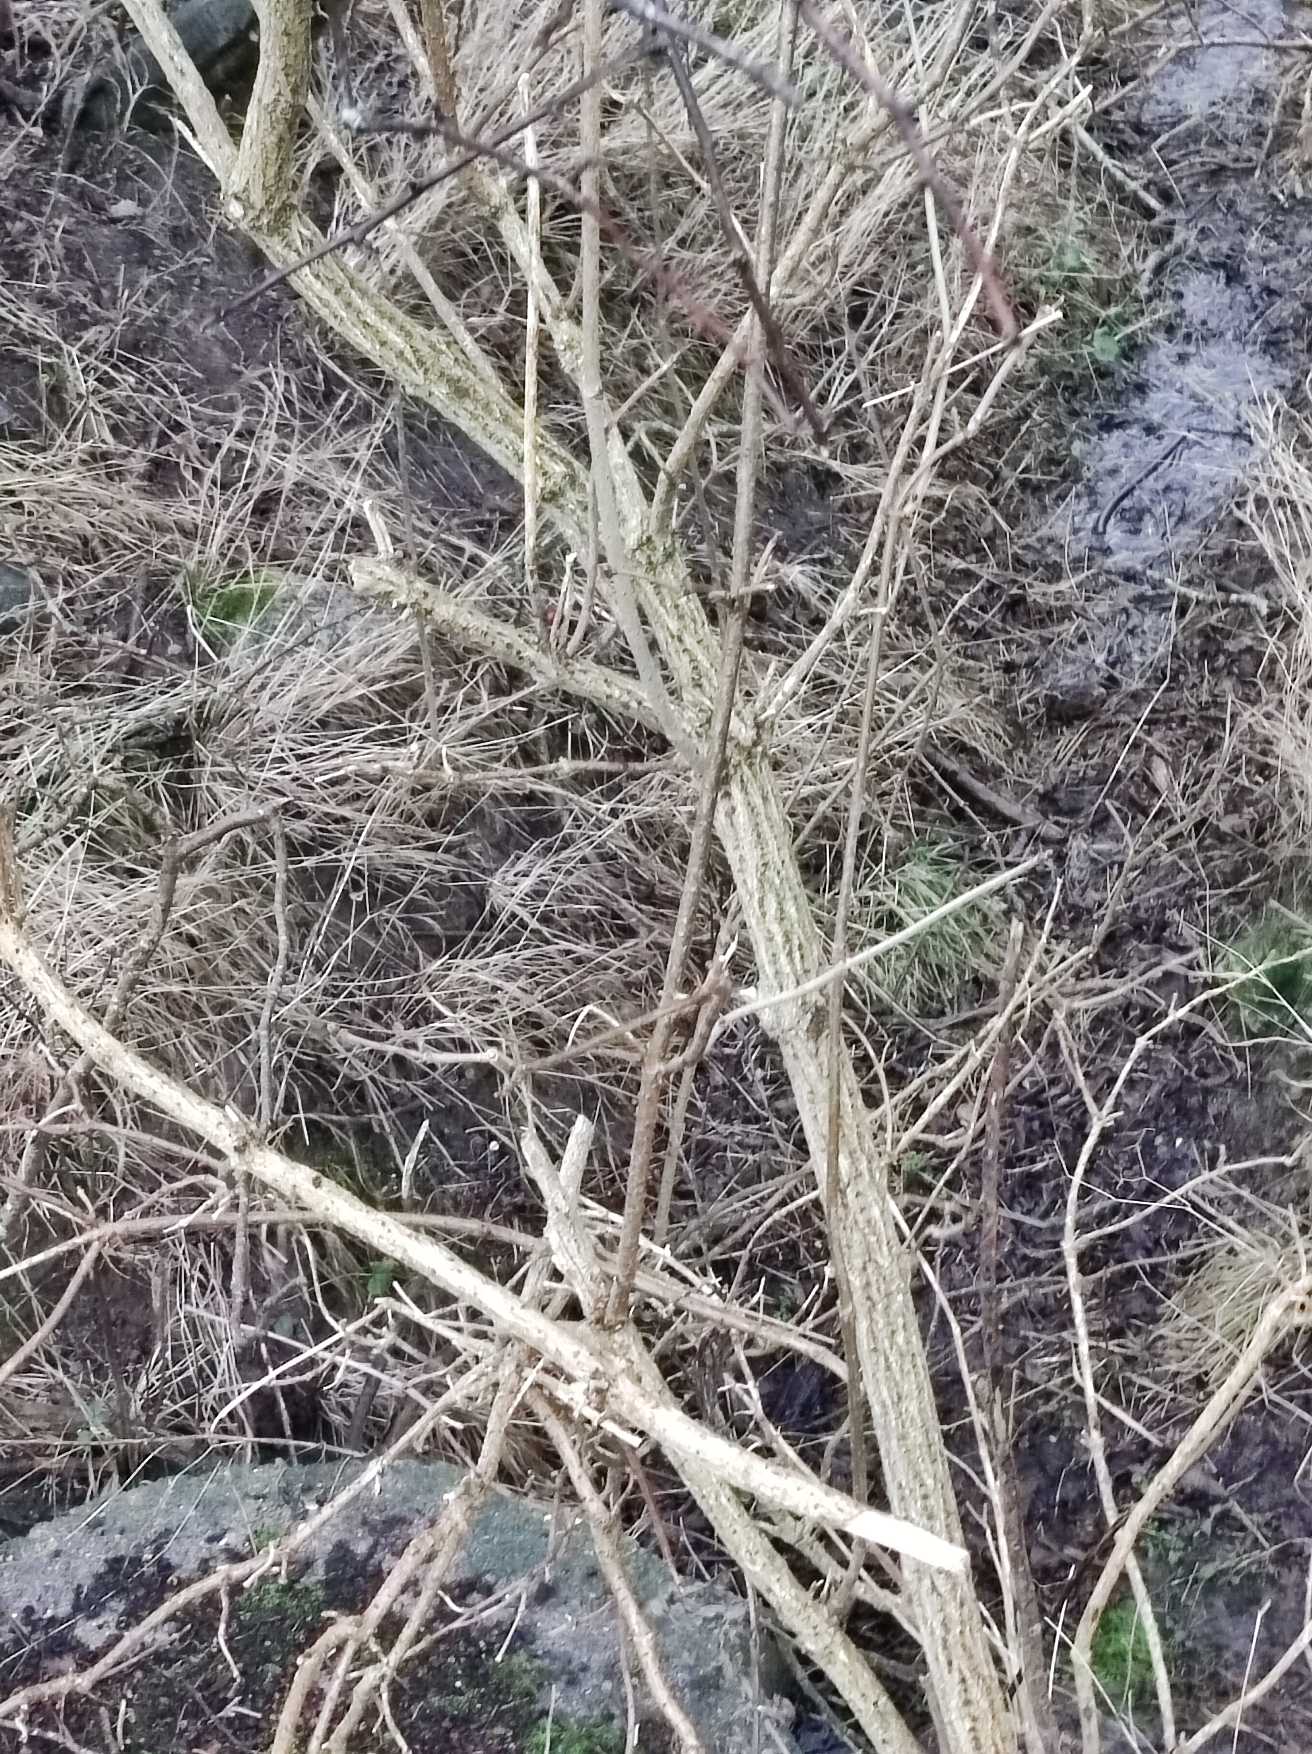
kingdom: Plantae
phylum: Tracheophyta
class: Magnoliopsida
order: Dipsacales
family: Viburnaceae
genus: Sambucus
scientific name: Sambucus nigra
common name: Almindelig hyld
